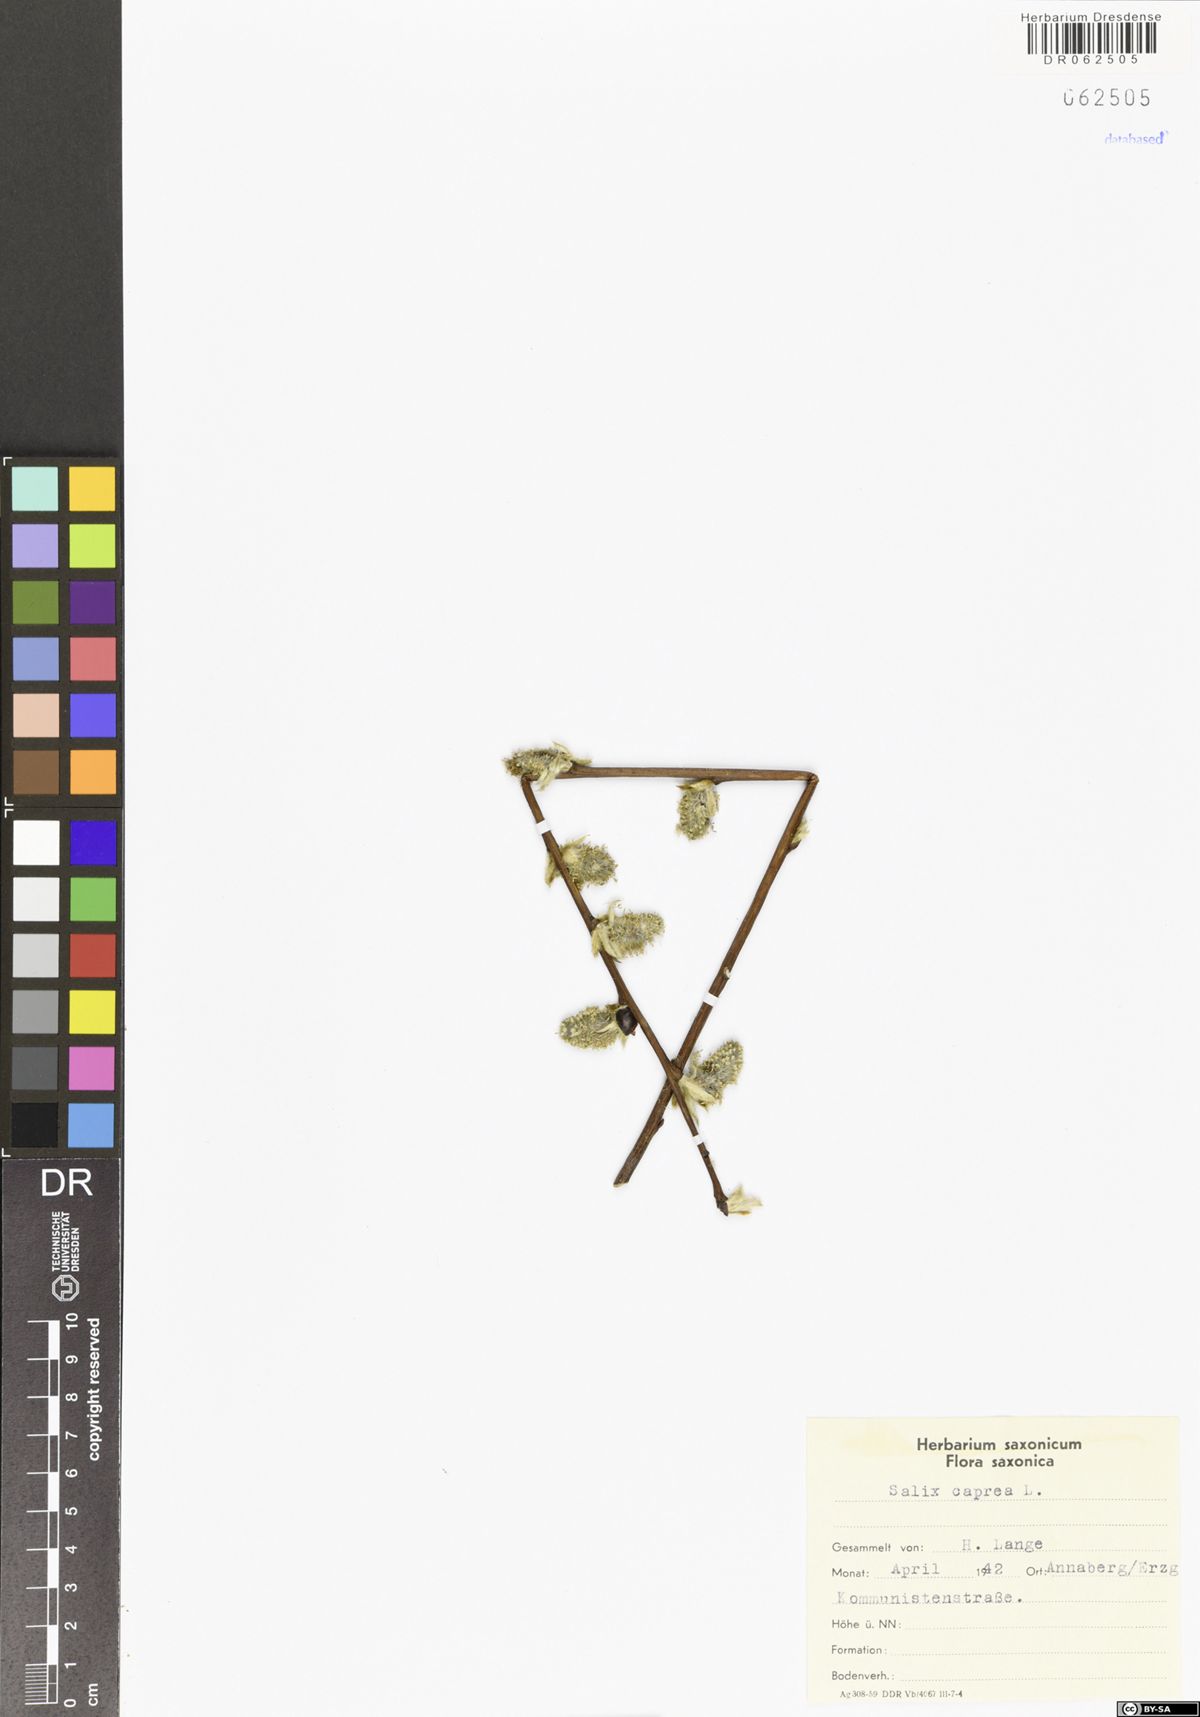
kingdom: Plantae
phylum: Tracheophyta
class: Magnoliopsida
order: Malpighiales
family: Salicaceae
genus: Salix
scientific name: Salix caprea
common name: Goat willow
